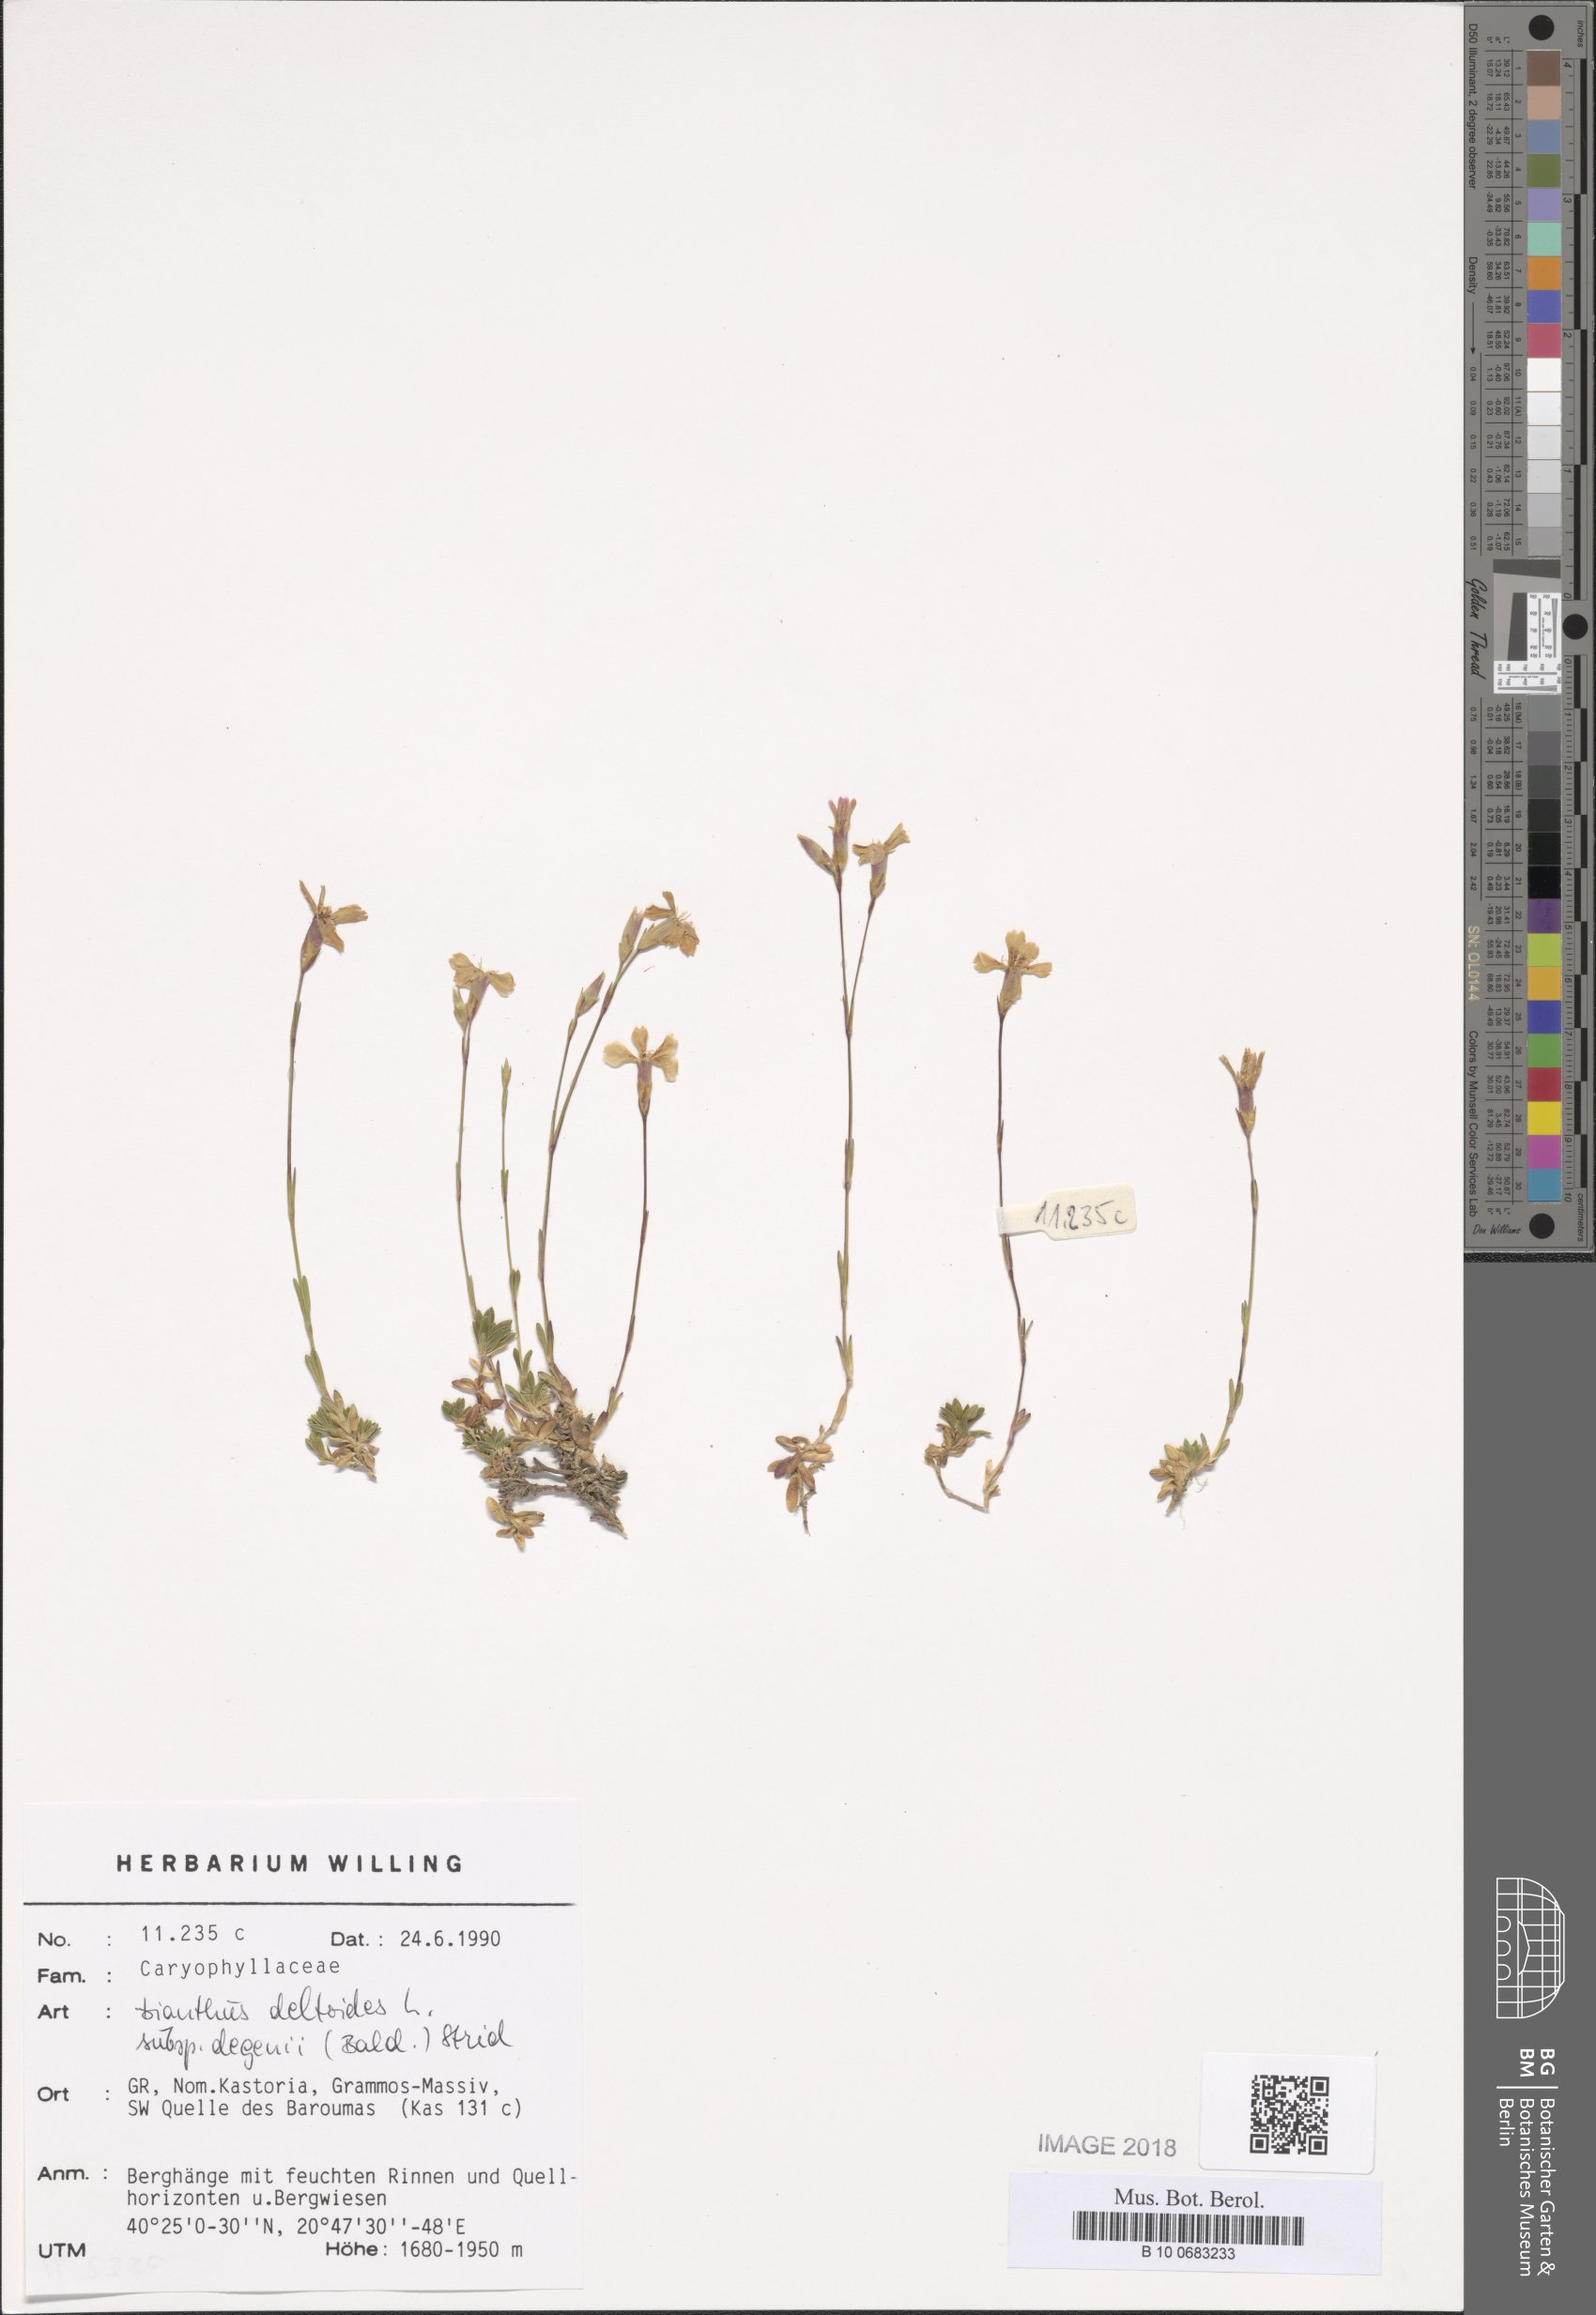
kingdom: Plantae
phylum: Tracheophyta
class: Magnoliopsida
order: Caryophyllales
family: Caryophyllaceae
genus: Dianthus
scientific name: Dianthus deltoides
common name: Maiden pink
